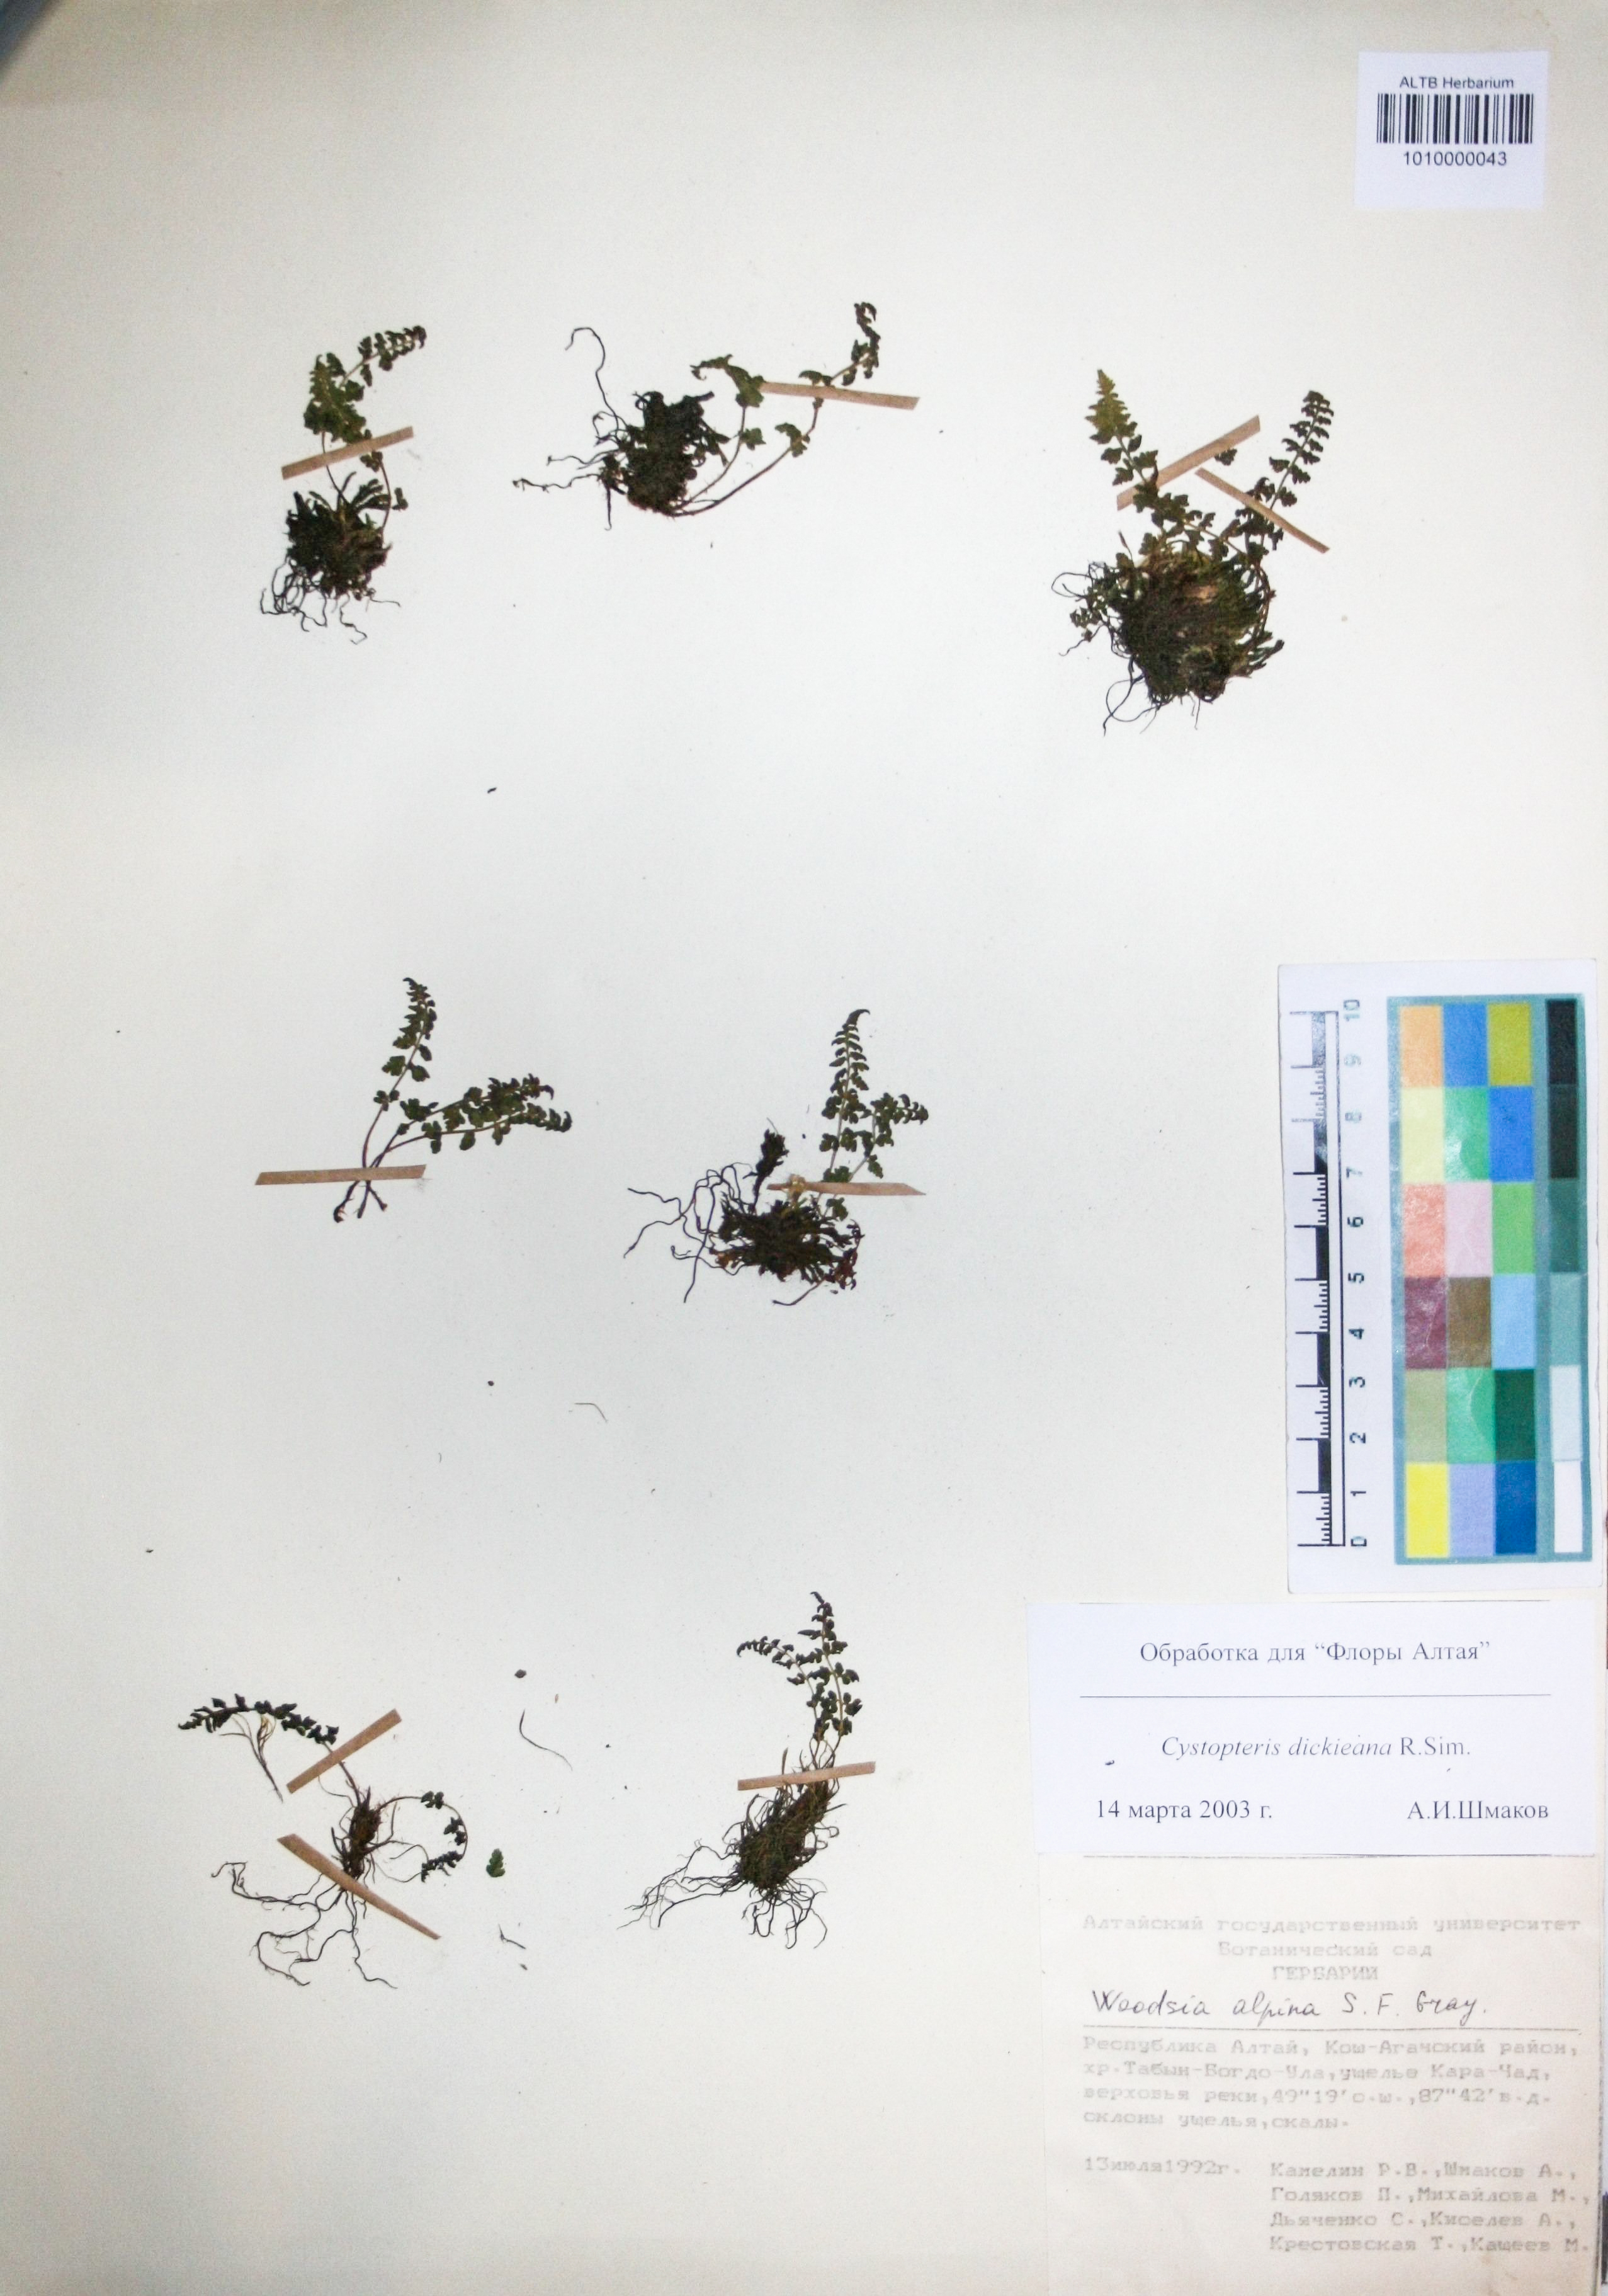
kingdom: Plantae
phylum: Tracheophyta
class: Polypodiopsida
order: Polypodiales
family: Cystopteridaceae
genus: Cystopteris
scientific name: Cystopteris dickieana
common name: Dickie's bladder-fern
